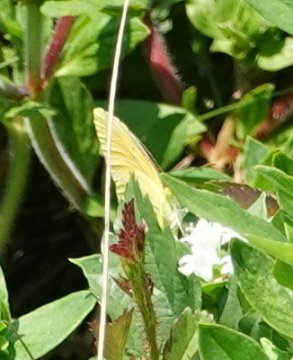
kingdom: Animalia
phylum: Arthropoda
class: Insecta
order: Lepidoptera
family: Pieridae
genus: Abaeis
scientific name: Abaeis nicippe
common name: Sleepy Orange
